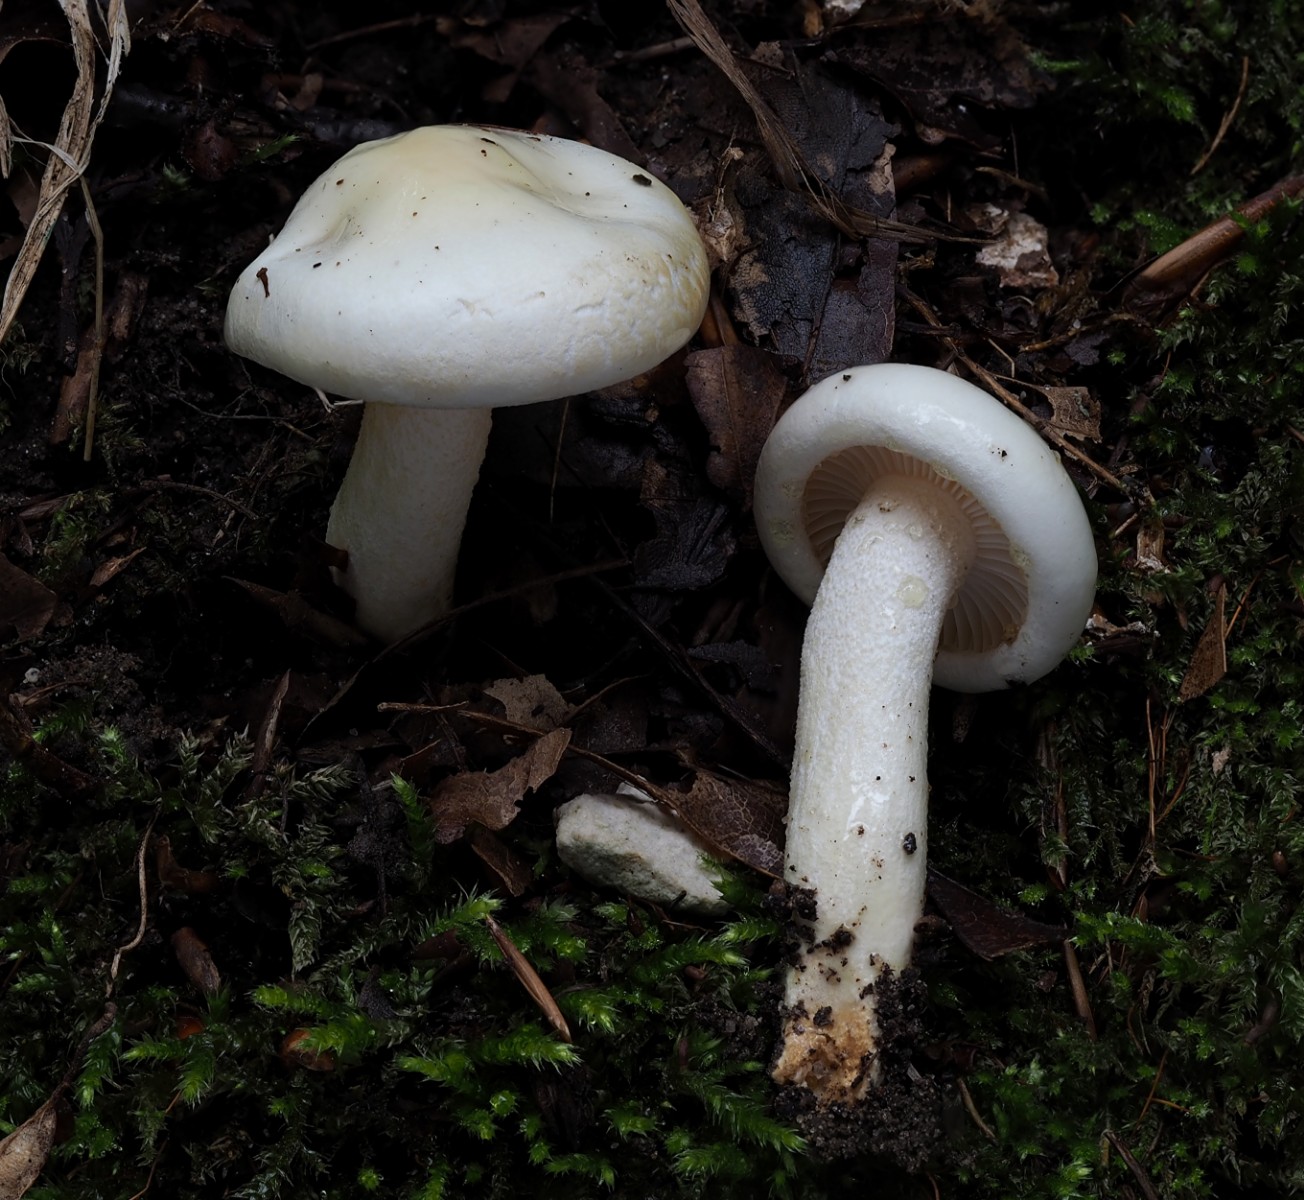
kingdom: Fungi
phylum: Basidiomycota
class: Agaricomycetes
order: Agaricales
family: Hygrophoraceae
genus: Hygrophorus
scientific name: Hygrophorus discoxanthus
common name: ildelugtende sneglehat
